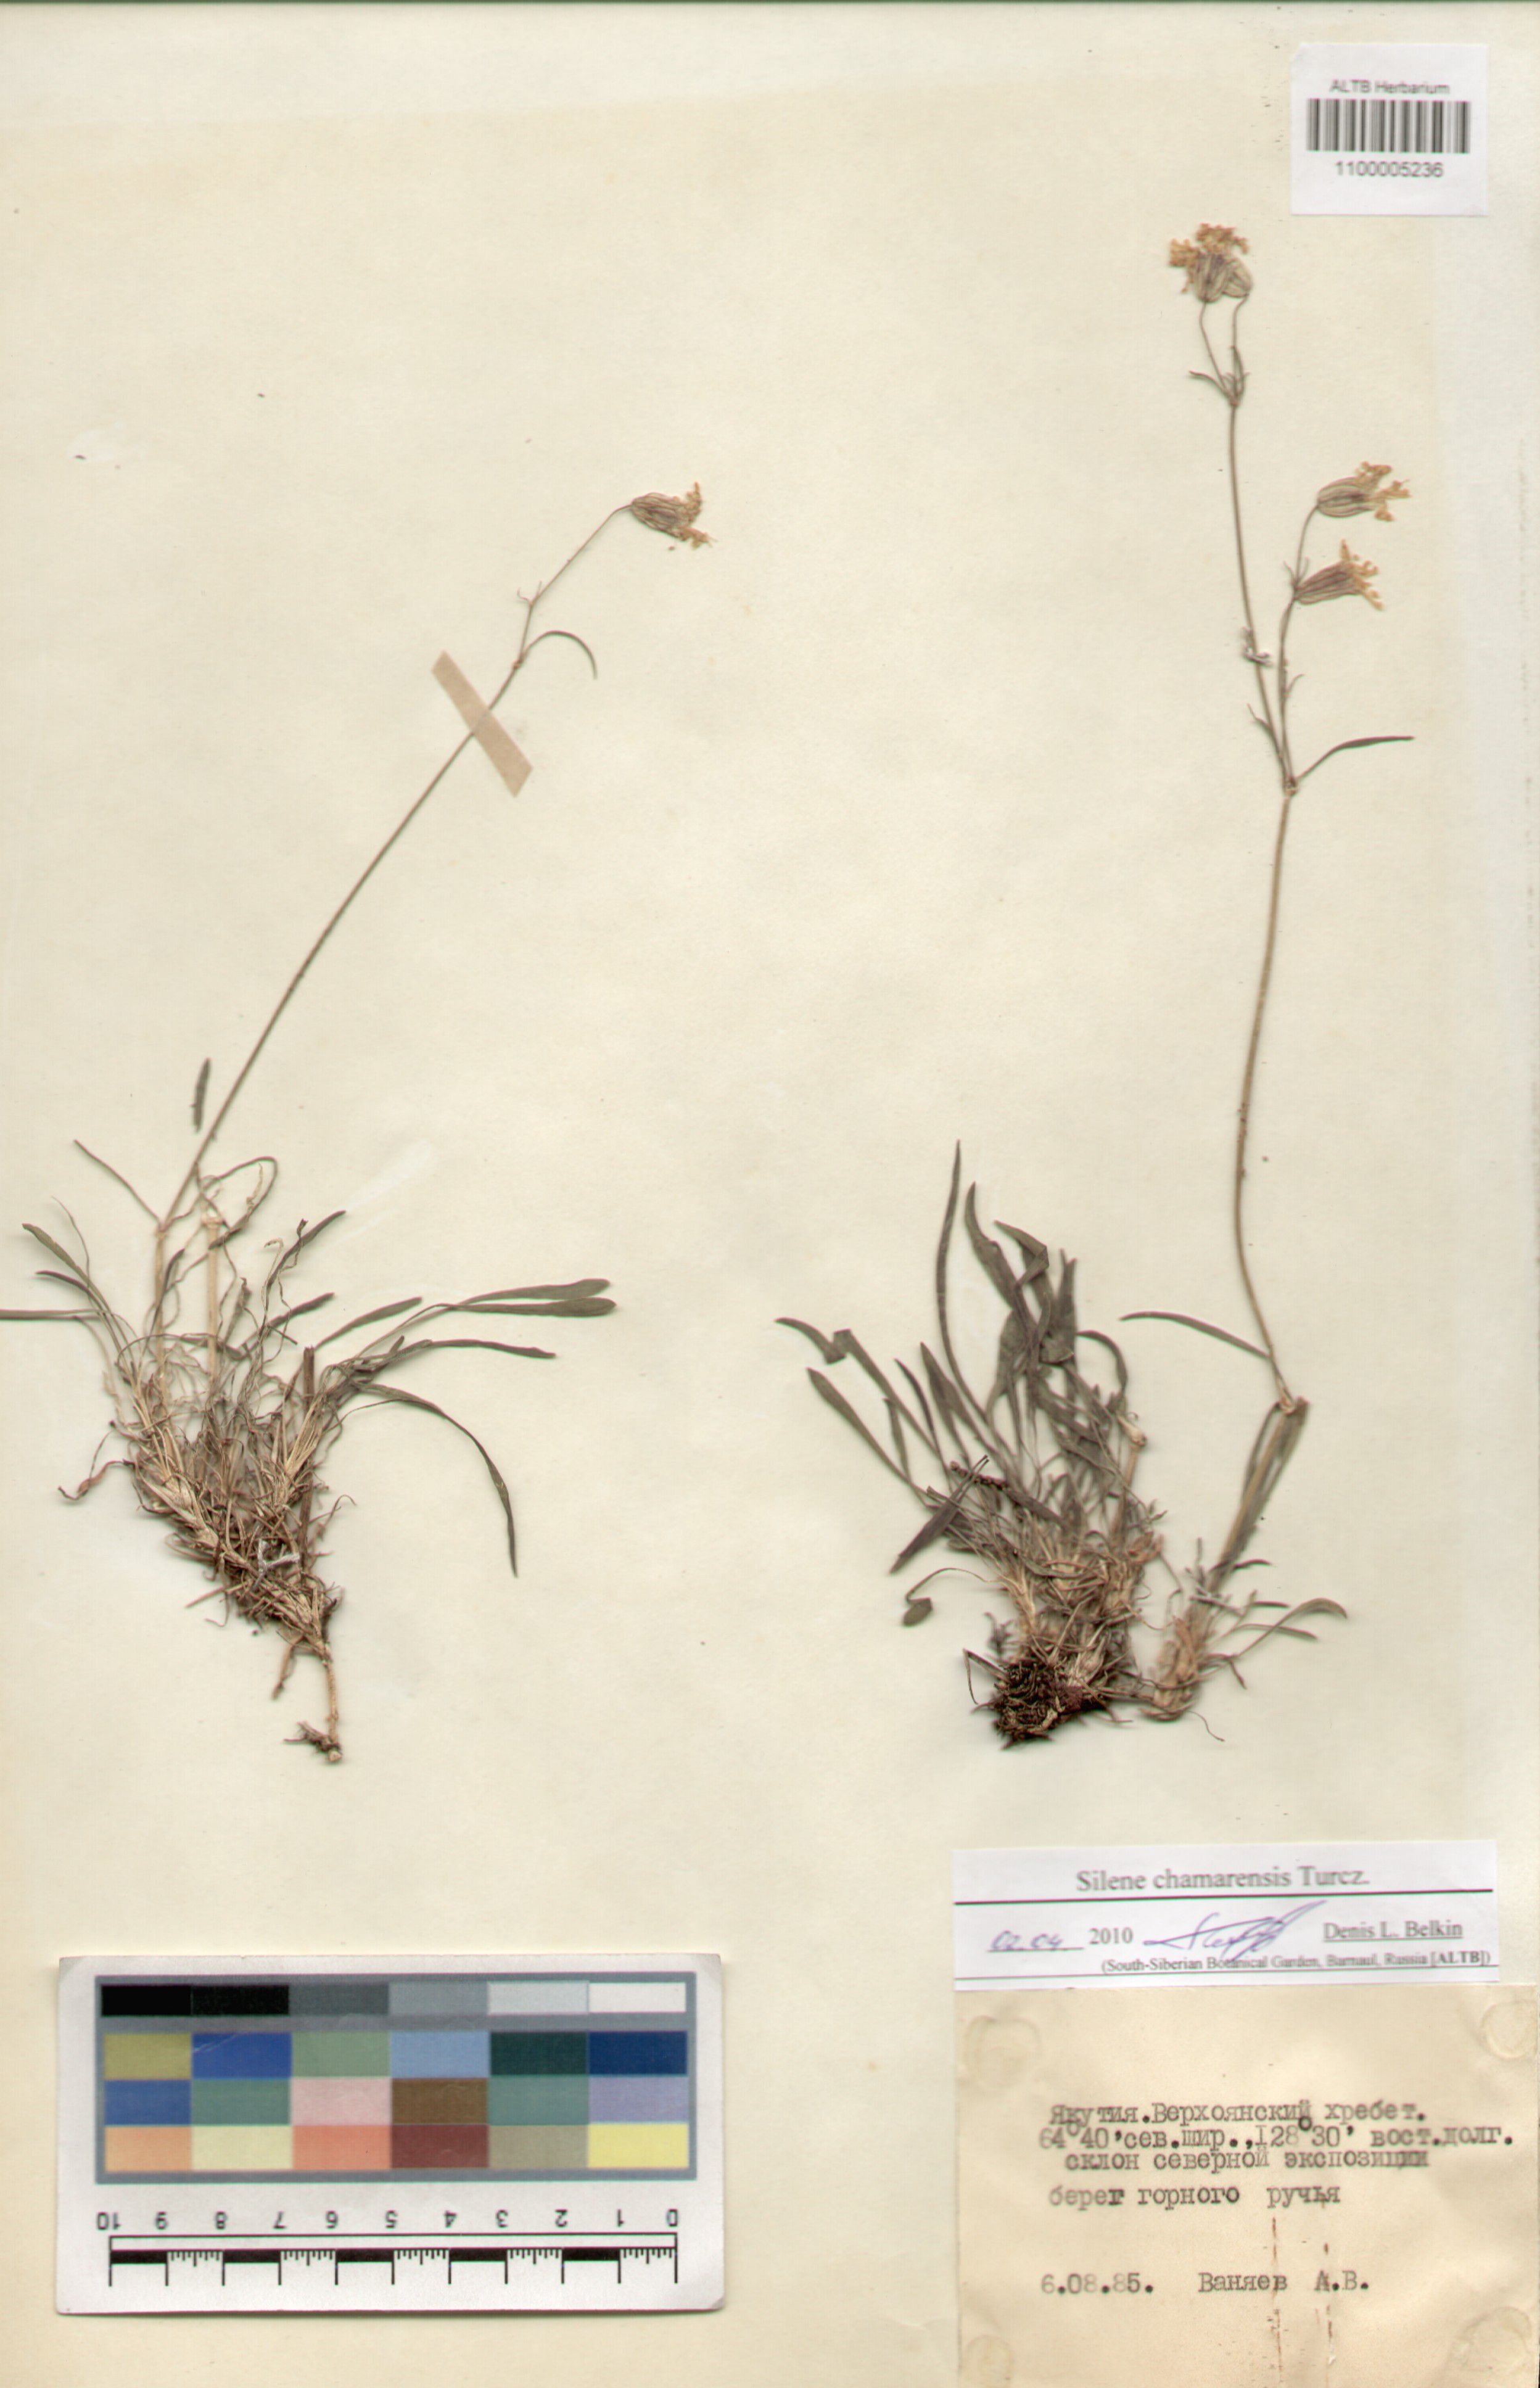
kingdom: Plantae
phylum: Tracheophyta
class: Magnoliopsida
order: Caryophyllales
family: Caryophyllaceae
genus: Silene
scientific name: Silene chamarensis
